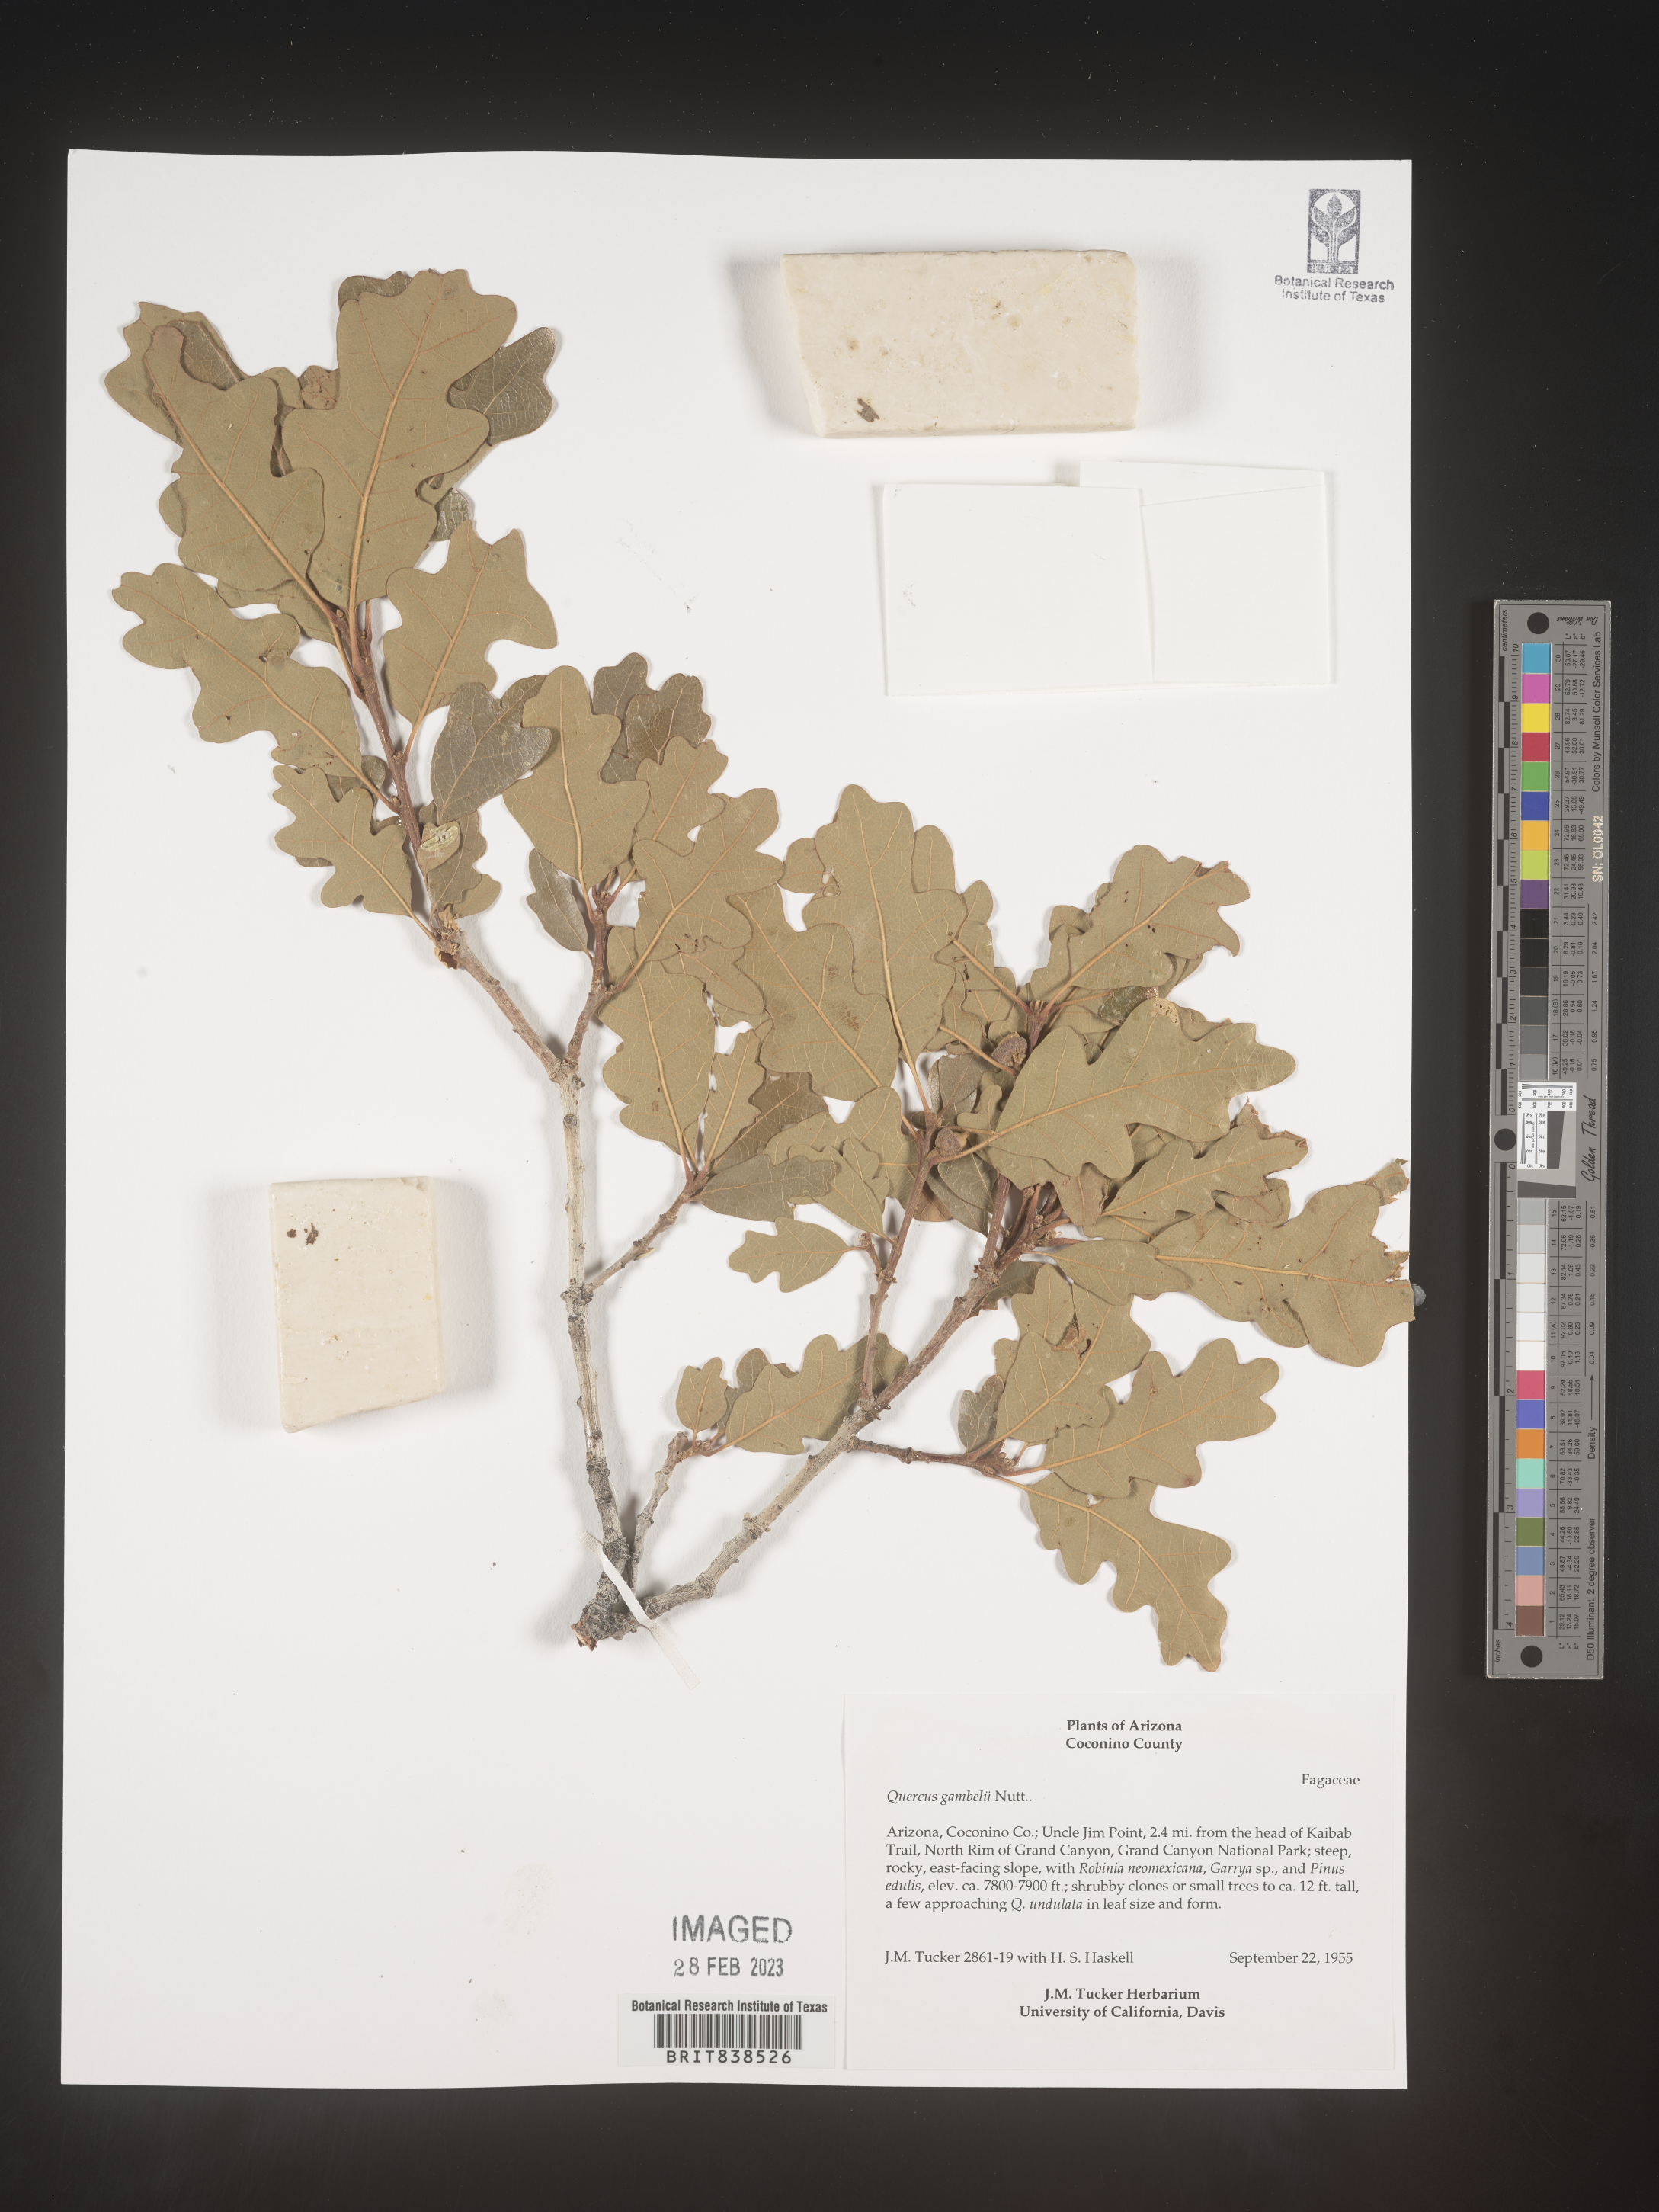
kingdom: Plantae
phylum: Tracheophyta
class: Magnoliopsida
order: Fagales
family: Fagaceae
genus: Quercus
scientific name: Quercus gambelii
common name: Gambel oak
